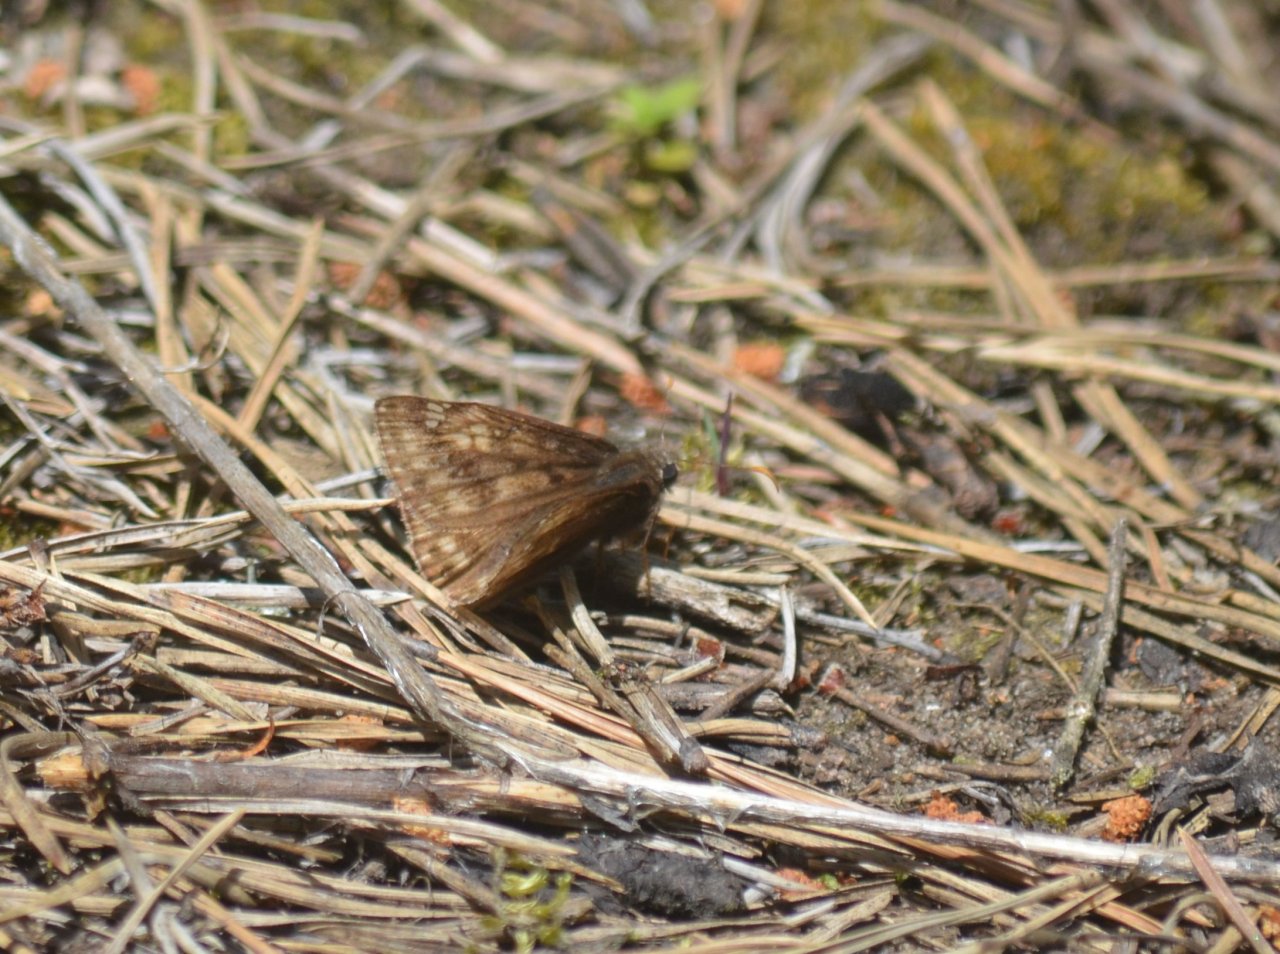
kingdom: Animalia
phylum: Arthropoda
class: Insecta
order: Lepidoptera
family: Hesperiidae
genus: Erynnis
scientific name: Erynnis
